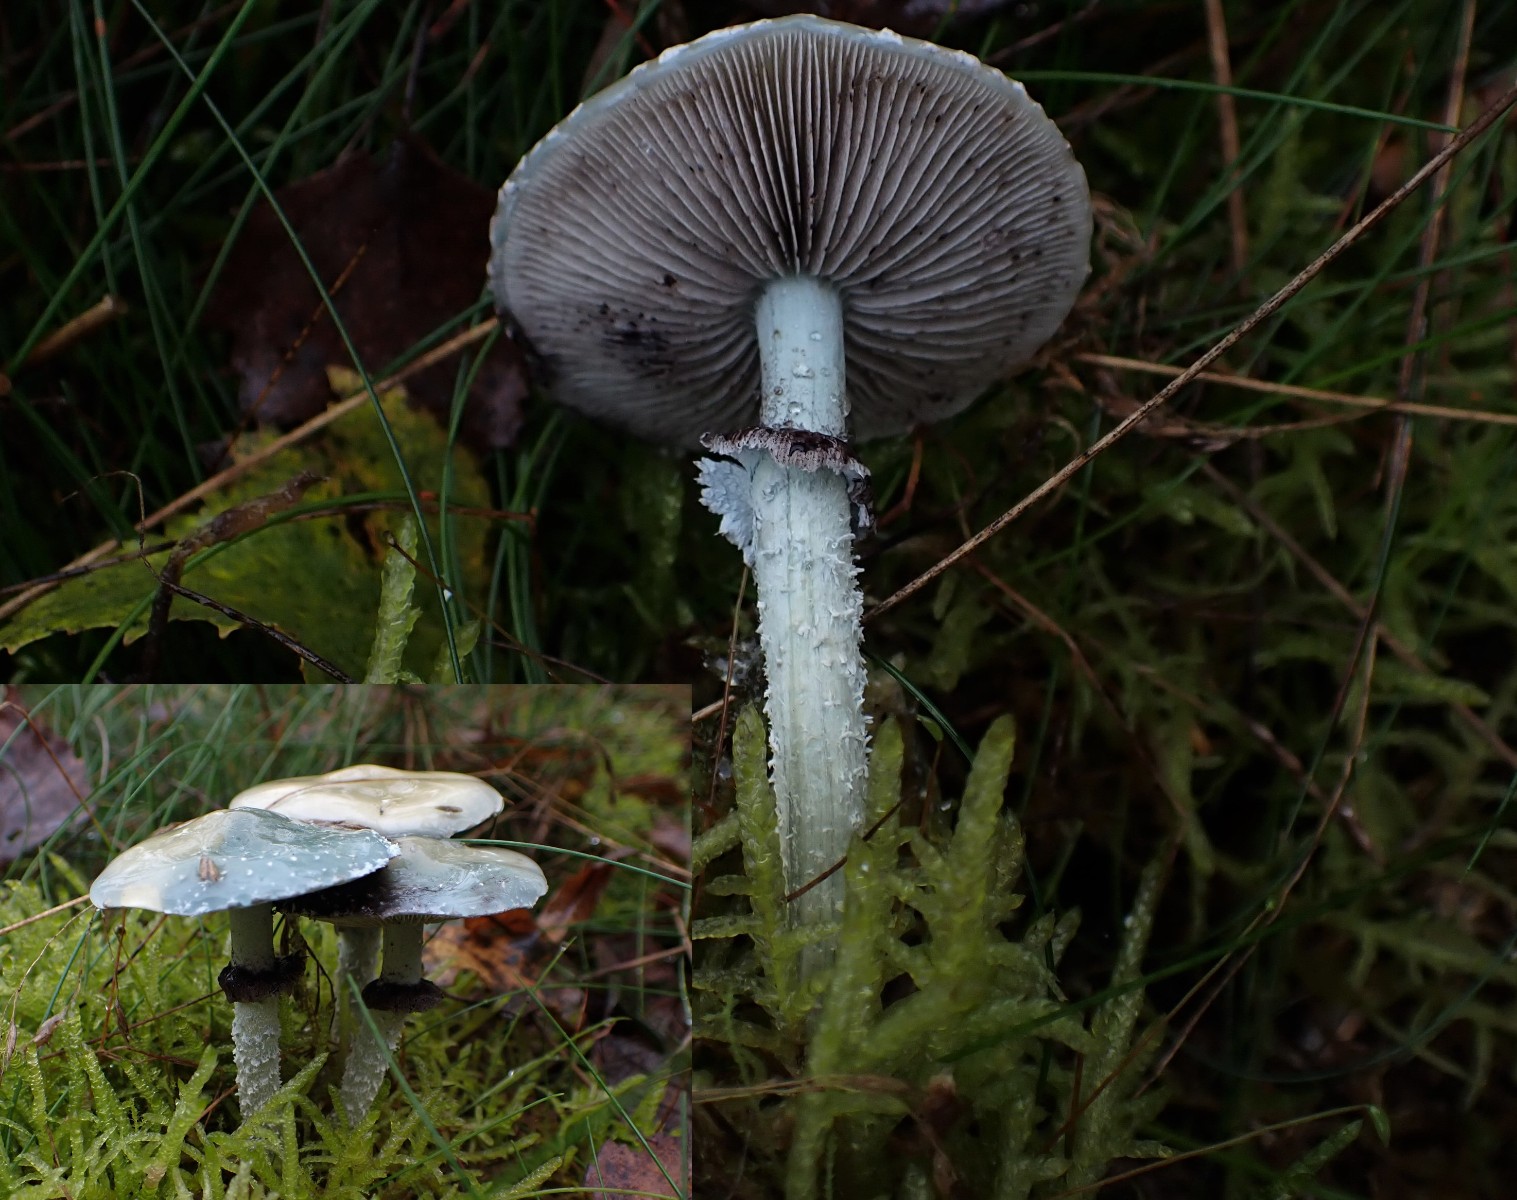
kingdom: Fungi
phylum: Basidiomycota
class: Agaricomycetes
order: Agaricales
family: Strophariaceae
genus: Stropharia
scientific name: Stropharia cyanea
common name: blågrøn bredblad
